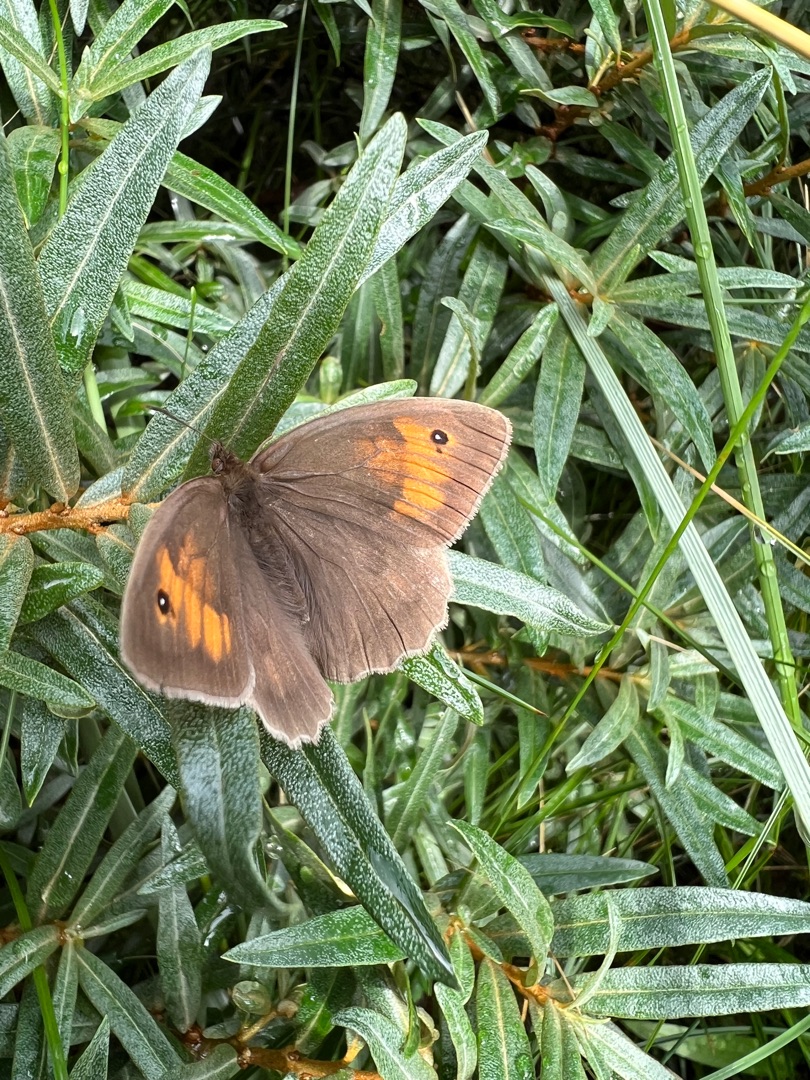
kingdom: Animalia
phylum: Arthropoda
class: Insecta
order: Lepidoptera
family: Nymphalidae
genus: Maniola
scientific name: Maniola jurtina
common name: Græsrandøje
